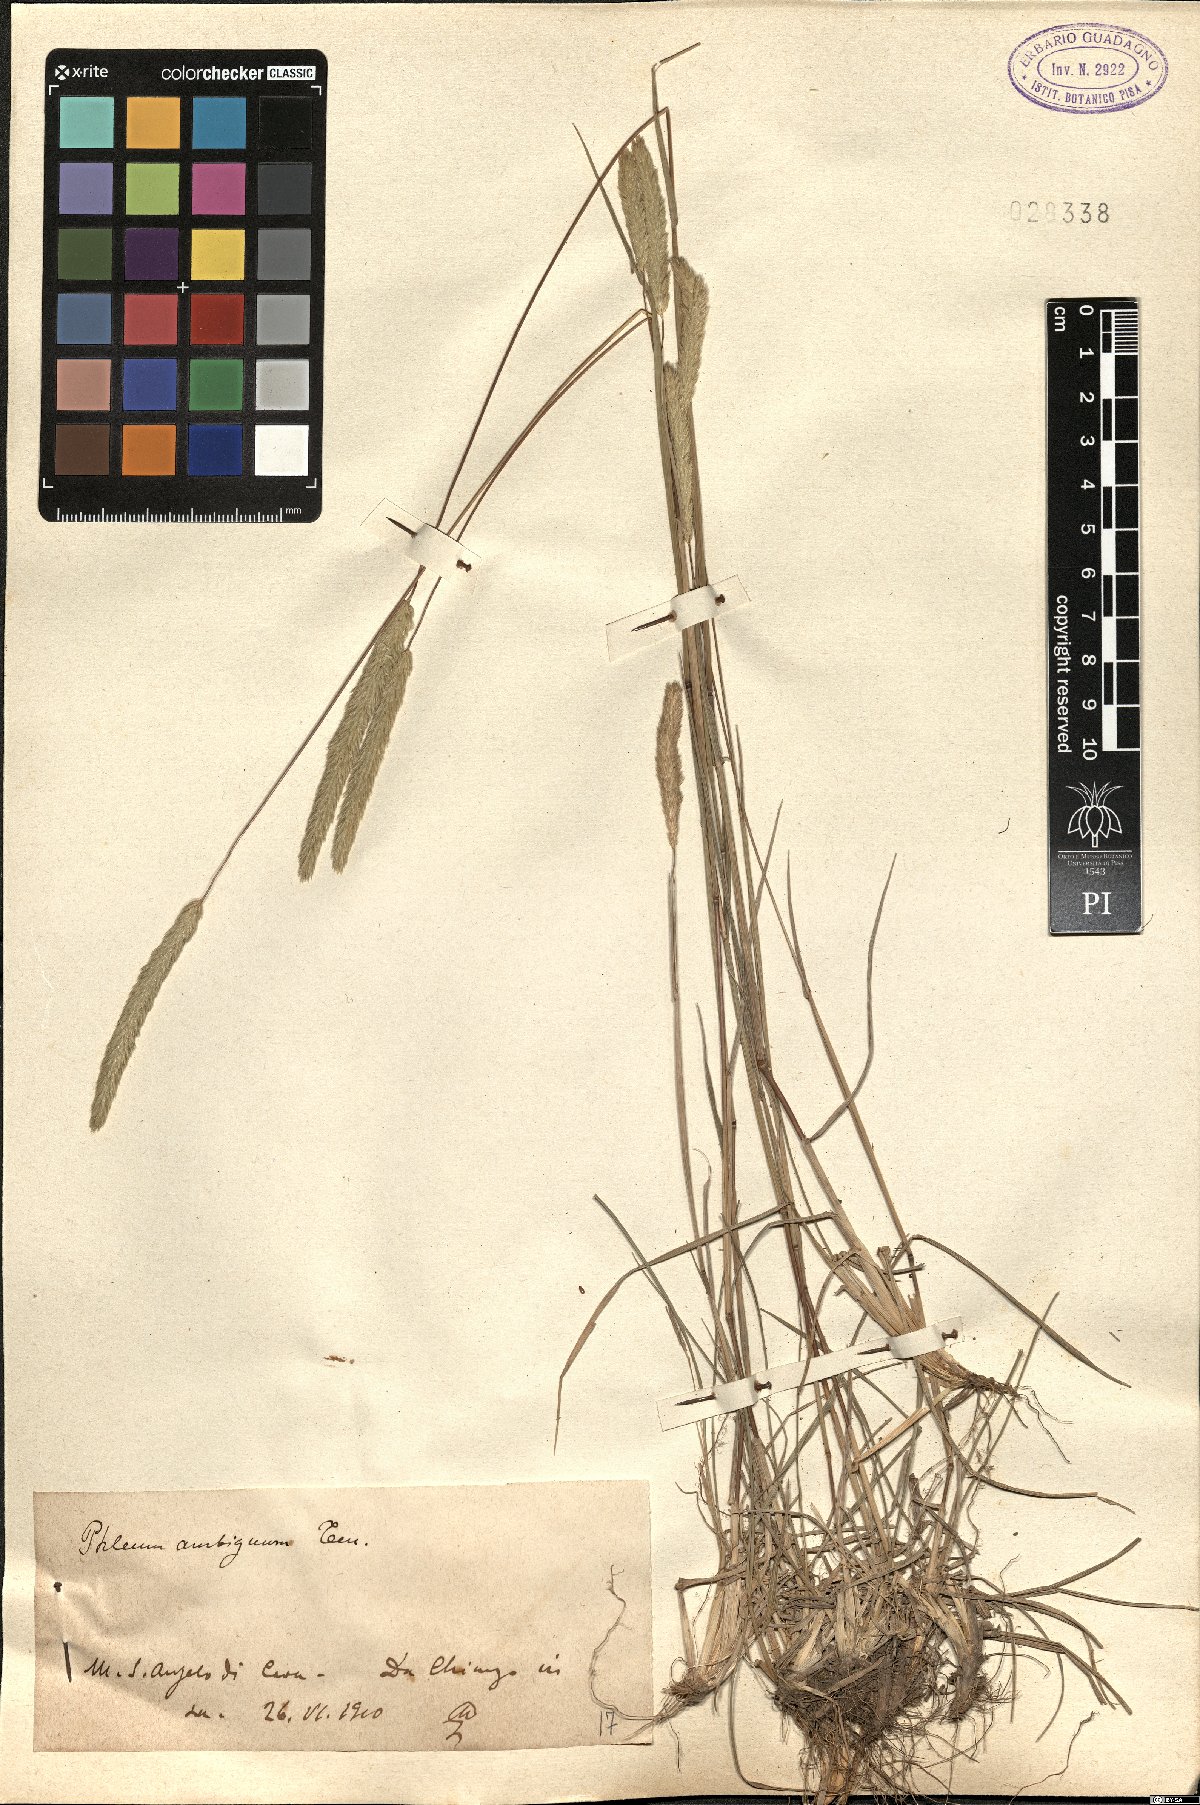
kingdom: Plantae
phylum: Tracheophyta
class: Liliopsida
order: Poales
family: Poaceae
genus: Phleum
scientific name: Phleum hirsutum
